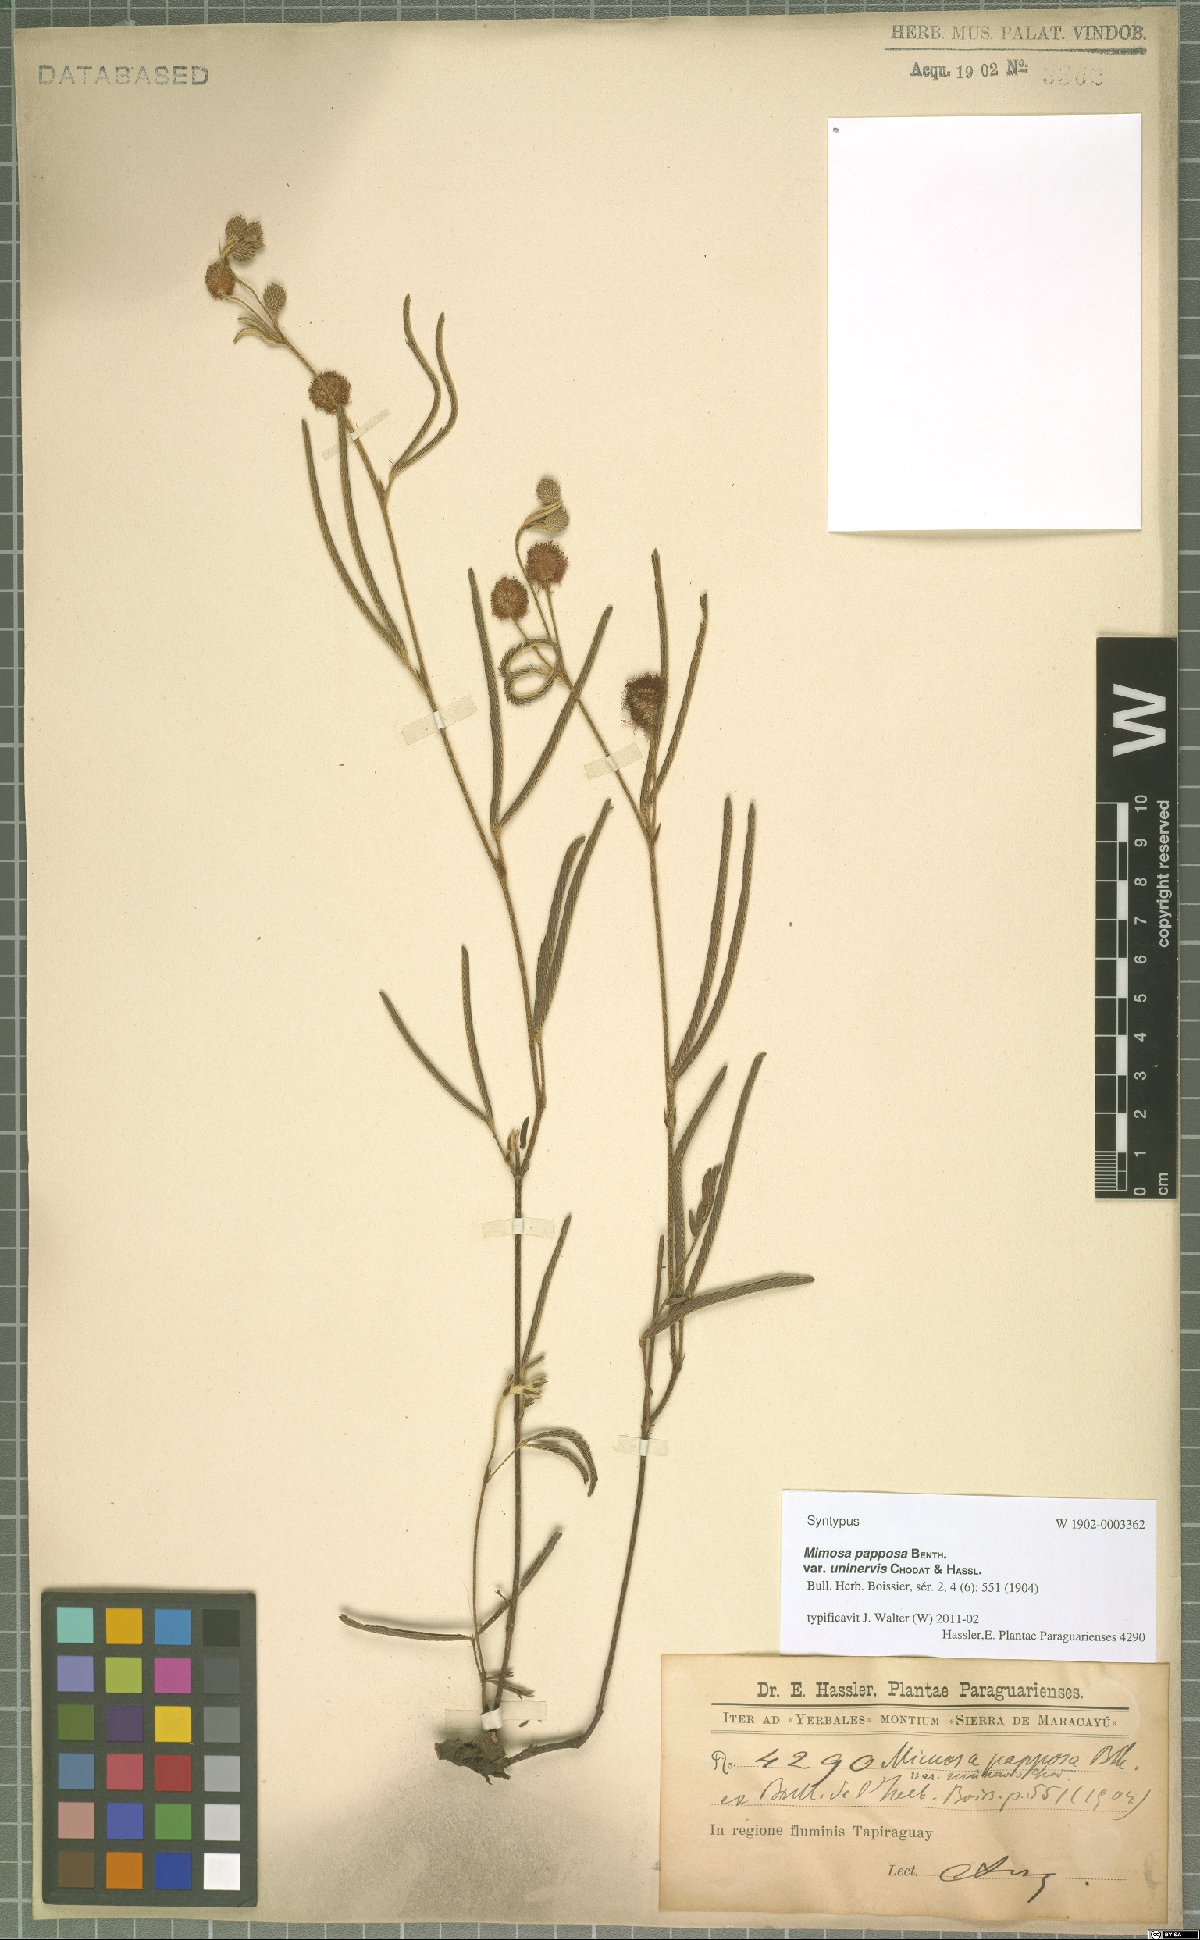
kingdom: Plantae
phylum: Tracheophyta
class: Magnoliopsida
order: Fabales
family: Fabaceae
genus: Mimosa
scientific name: Mimosa uninervis
